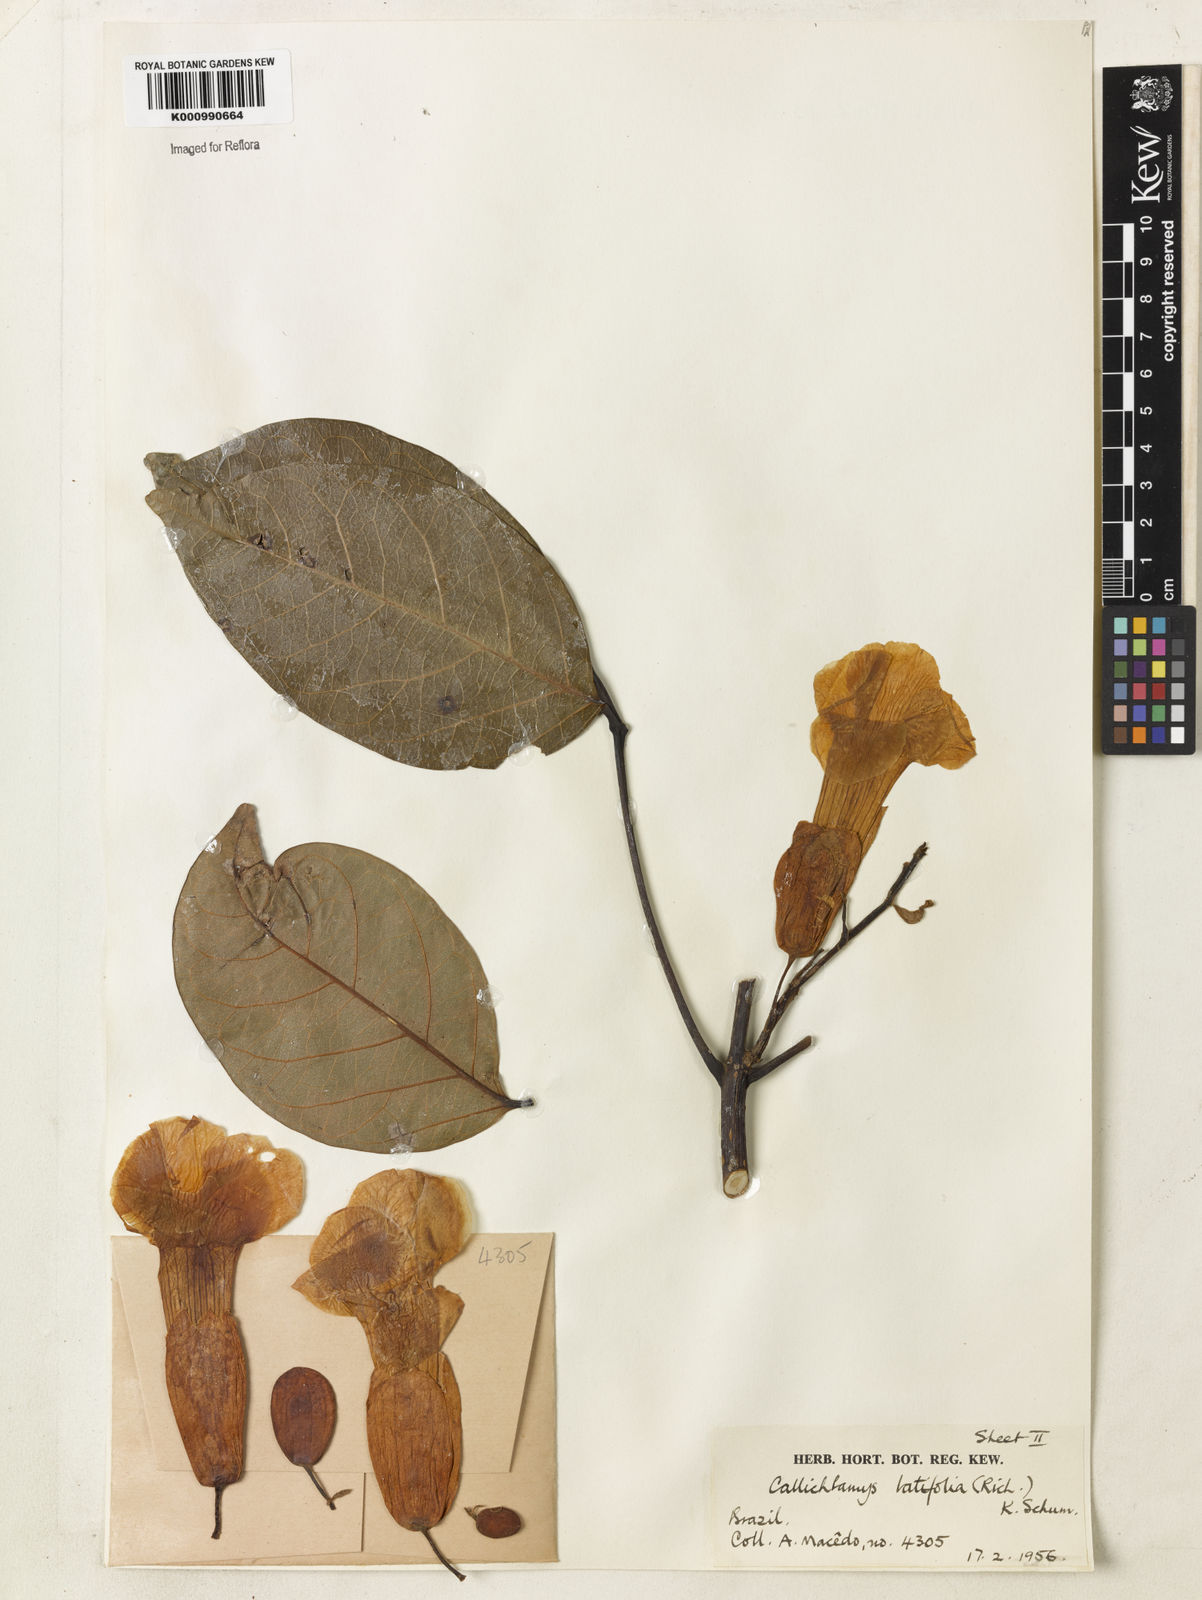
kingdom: Plantae
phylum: Tracheophyta
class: Magnoliopsida
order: Lamiales
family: Bignoniaceae
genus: Callichlamys
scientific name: Callichlamys latifolia
